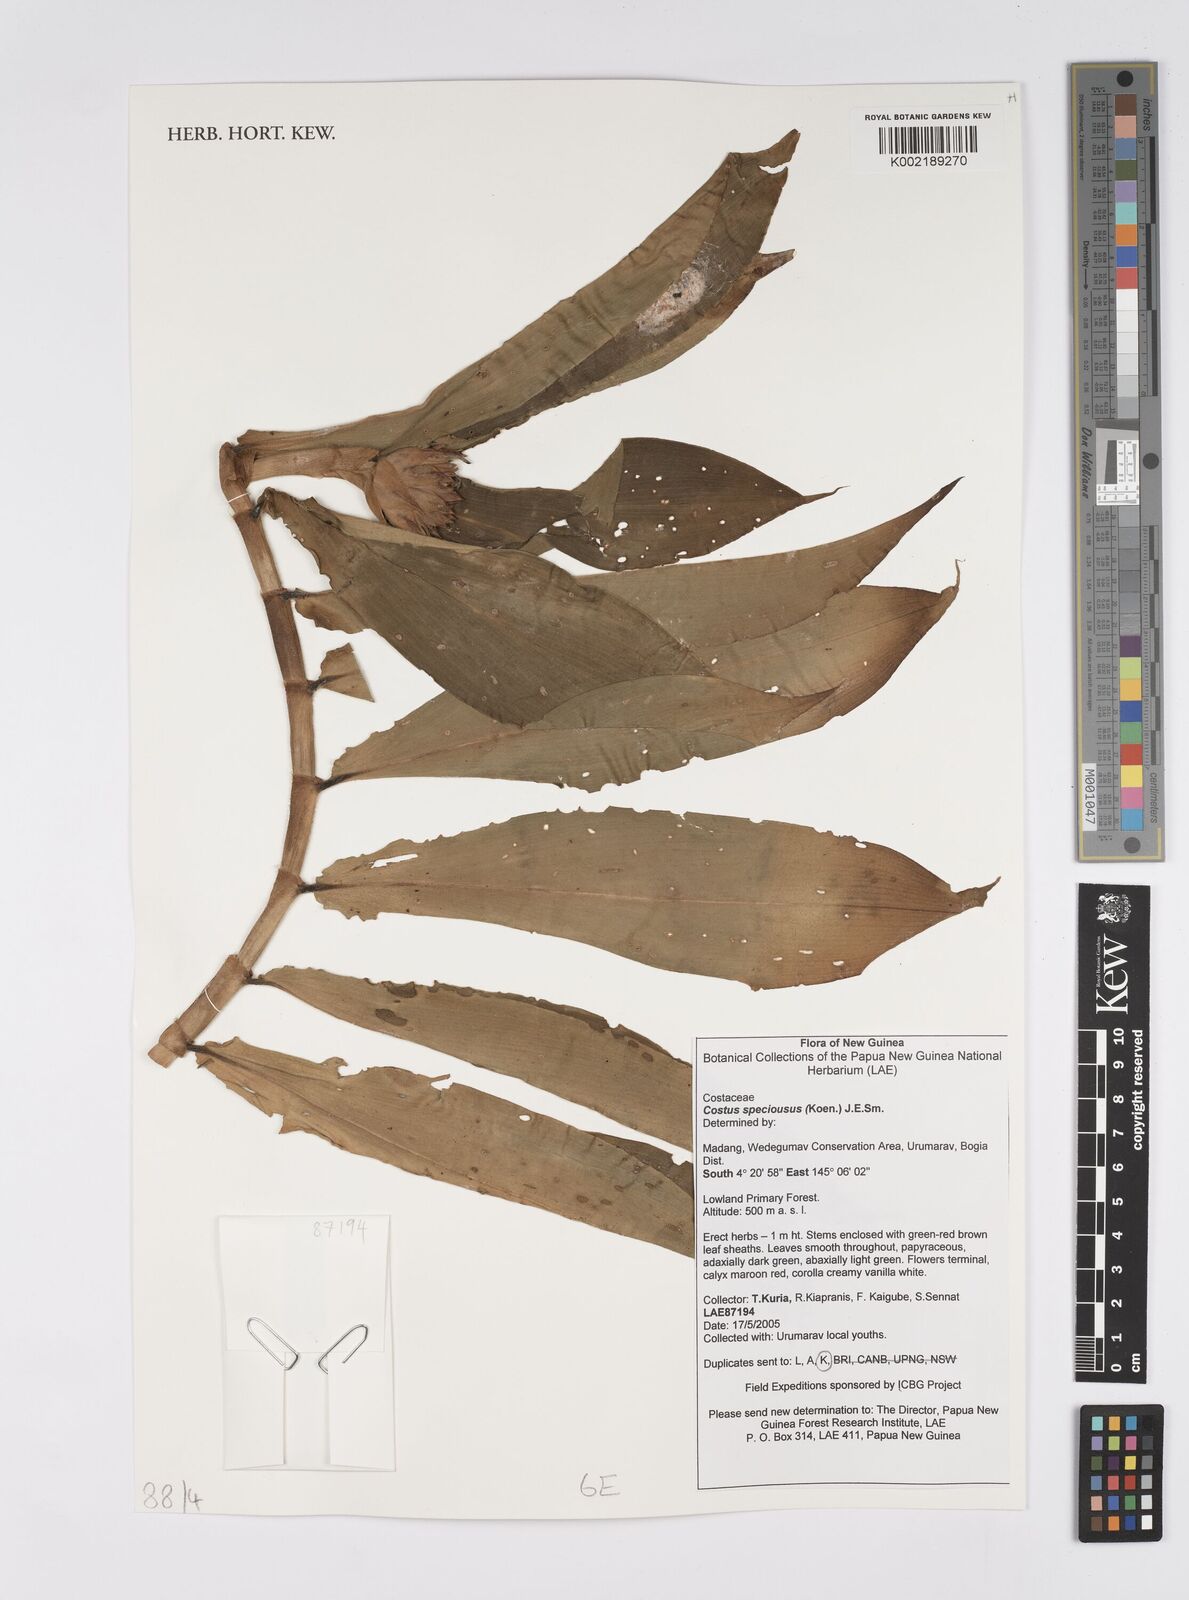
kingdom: Plantae
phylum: Tracheophyta
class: Liliopsida
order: Zingiberales
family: Costaceae
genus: Hellenia
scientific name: Hellenia speciosa
